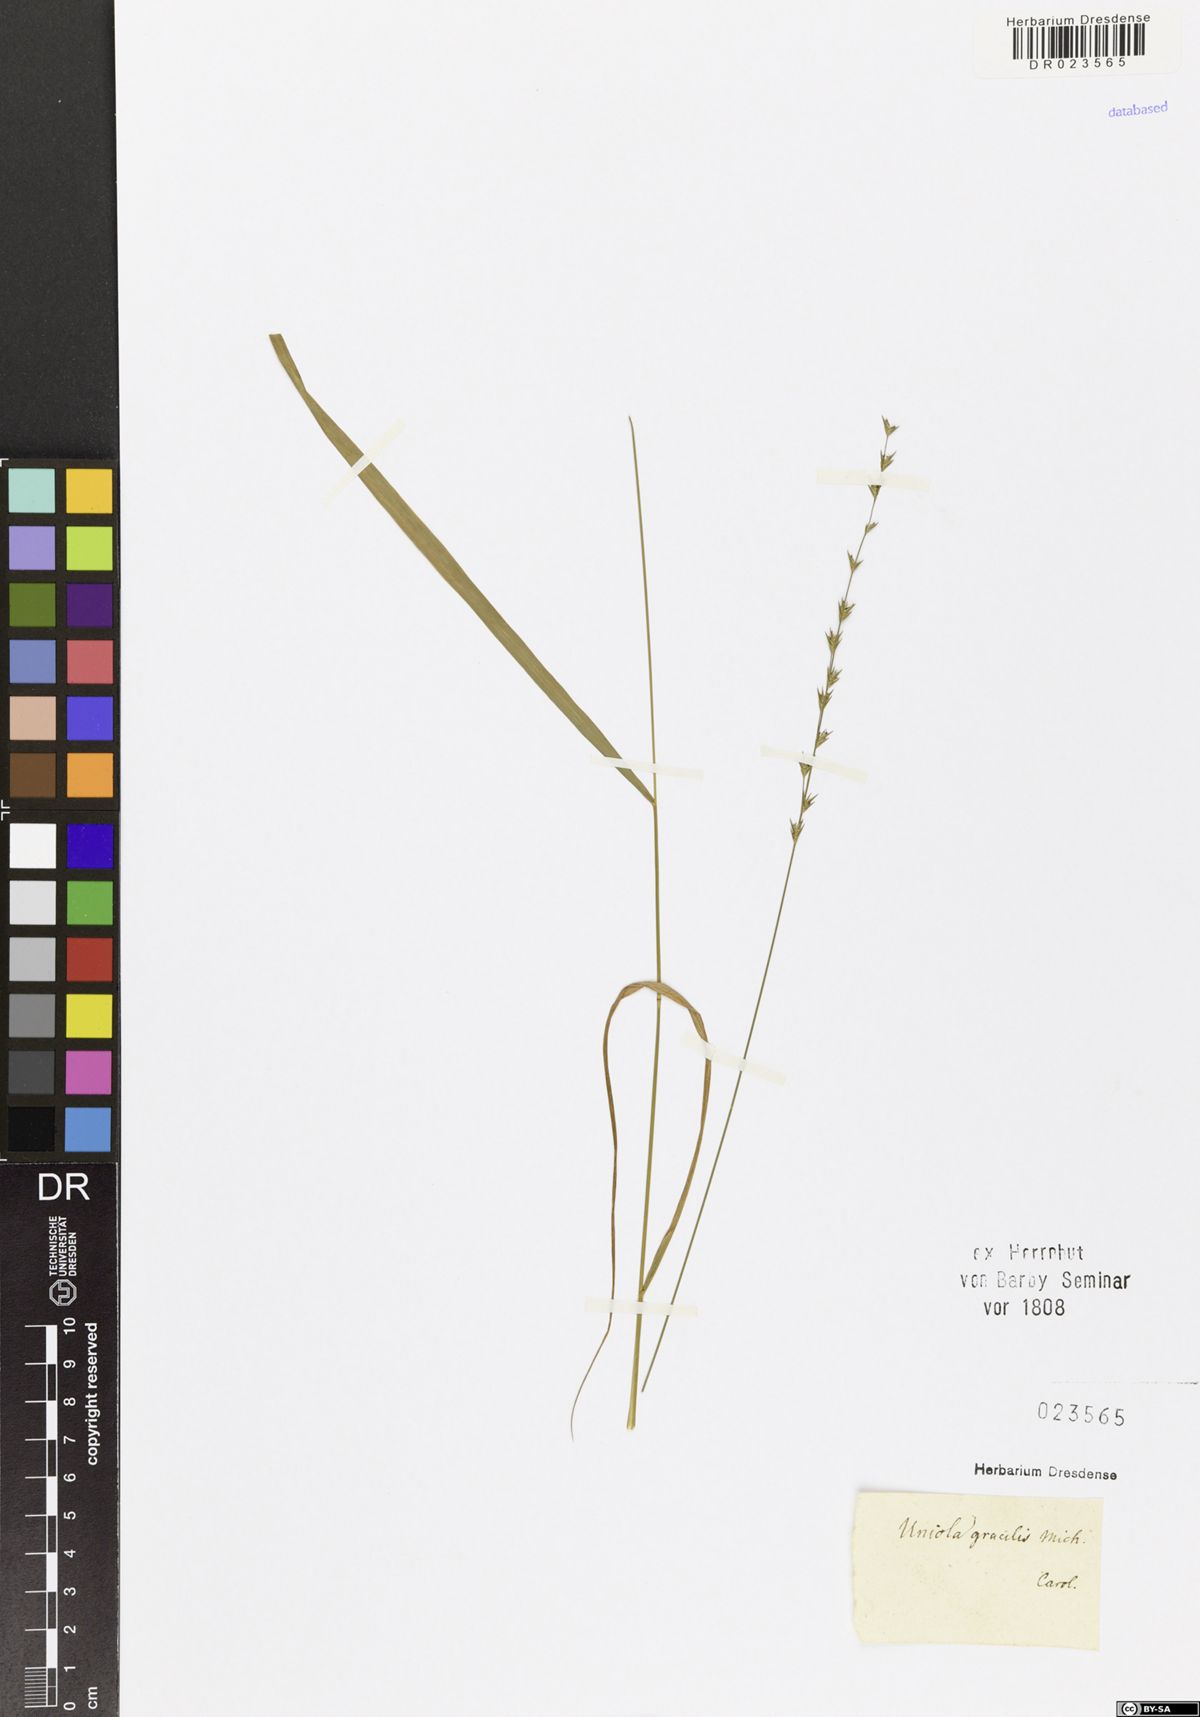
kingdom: Plantae
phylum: Tracheophyta
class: Liliopsida
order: Poales
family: Poaceae
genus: Chasmanthium
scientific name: Chasmanthium laxum
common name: Slender chasmanthium
